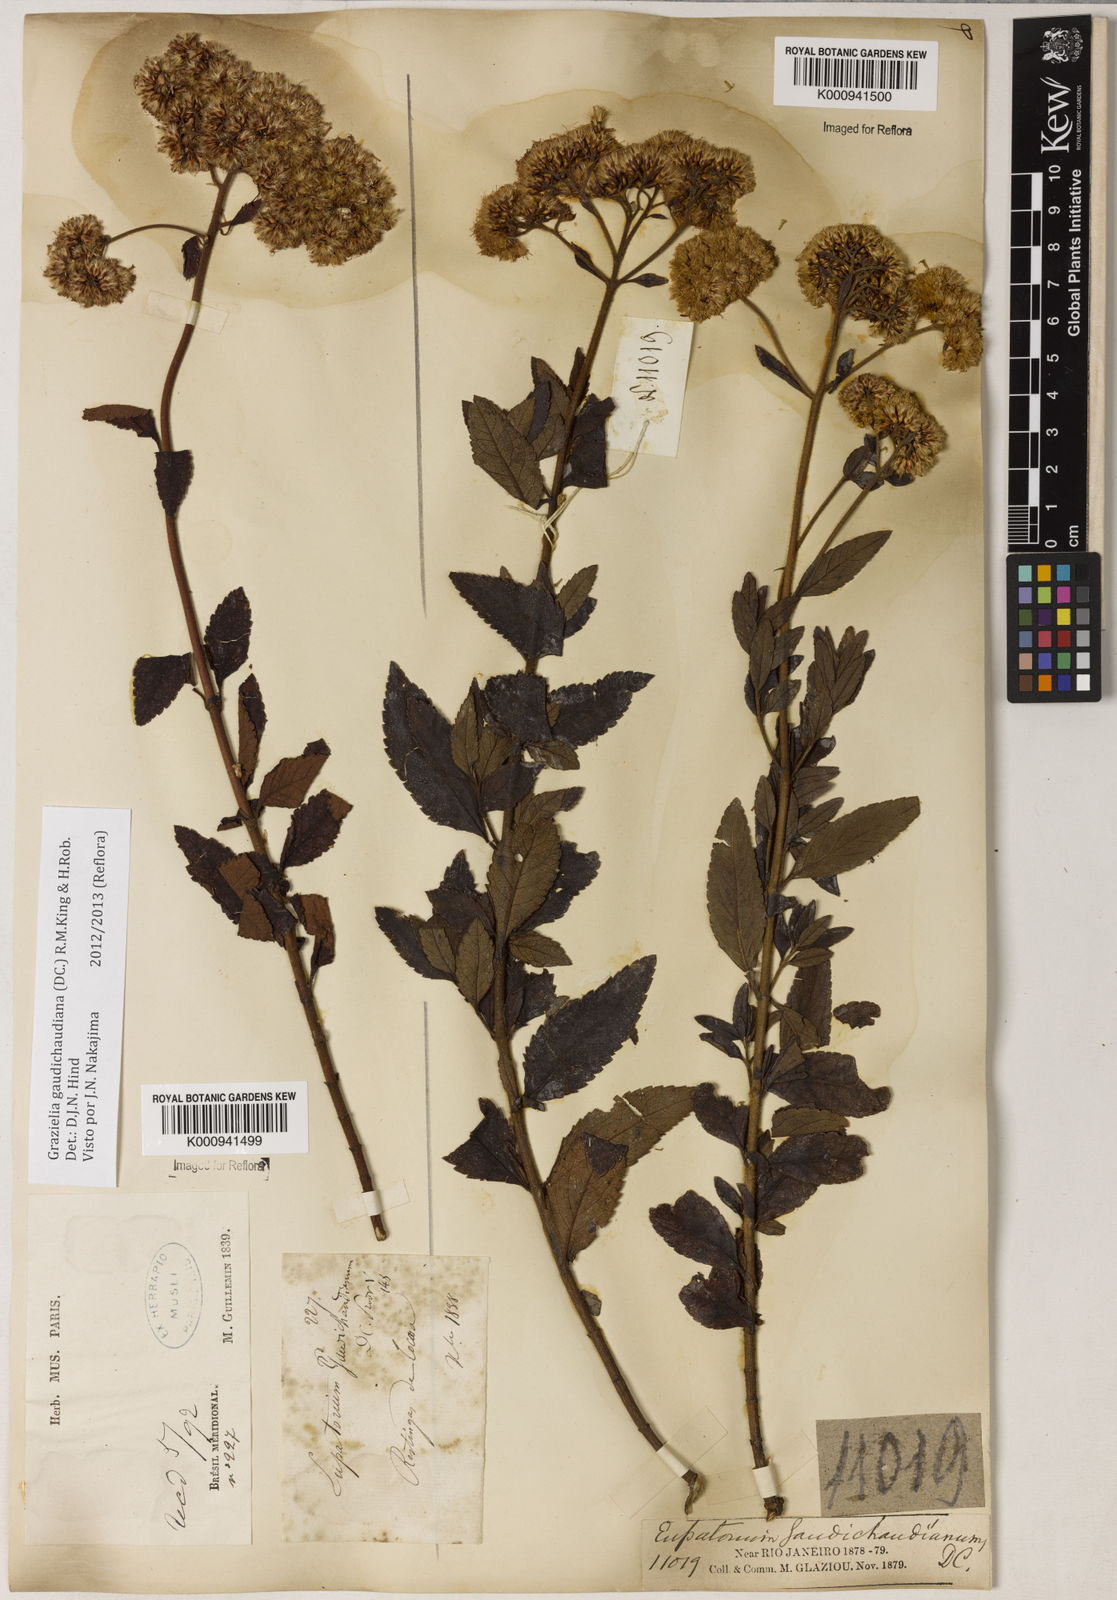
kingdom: Plantae
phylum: Tracheophyta
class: Magnoliopsida
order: Asterales
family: Asteraceae
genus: Grazielia
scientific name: Grazielia
